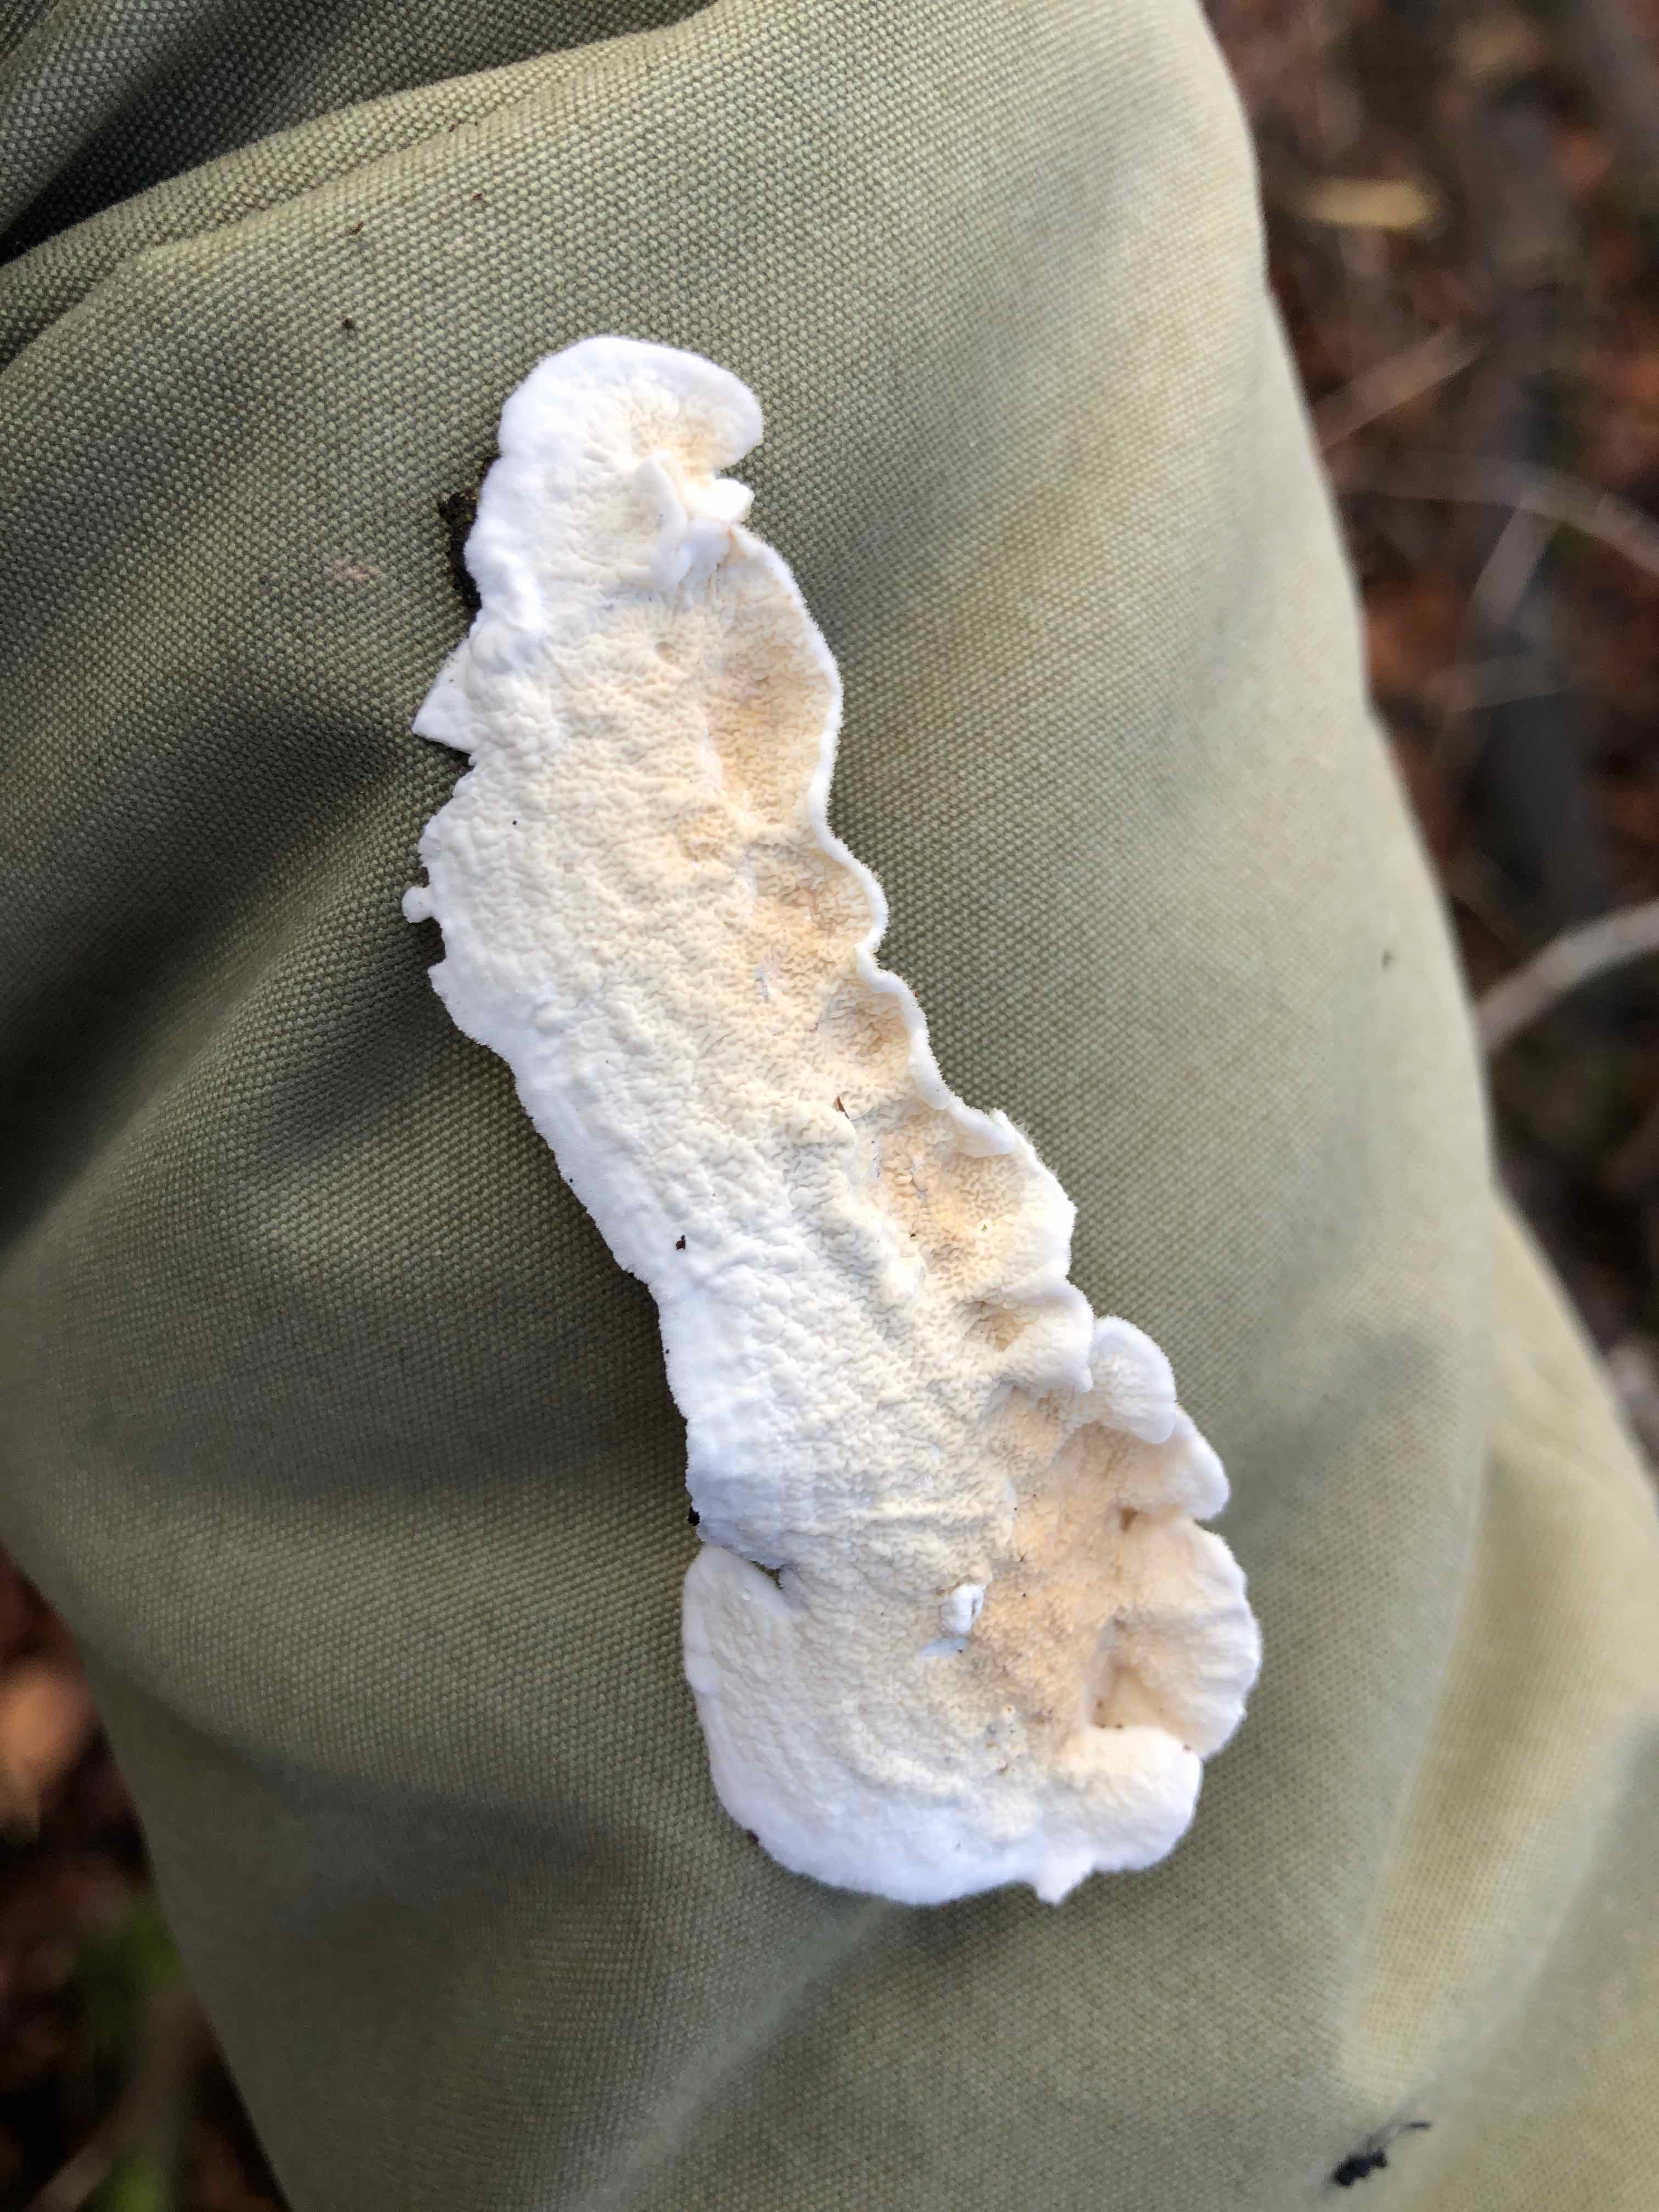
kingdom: Fungi
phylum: Basidiomycota
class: Agaricomycetes
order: Polyporales
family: Irpicaceae
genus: Byssomerulius
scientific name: Byssomerulius corium
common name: læder-åresvamp
